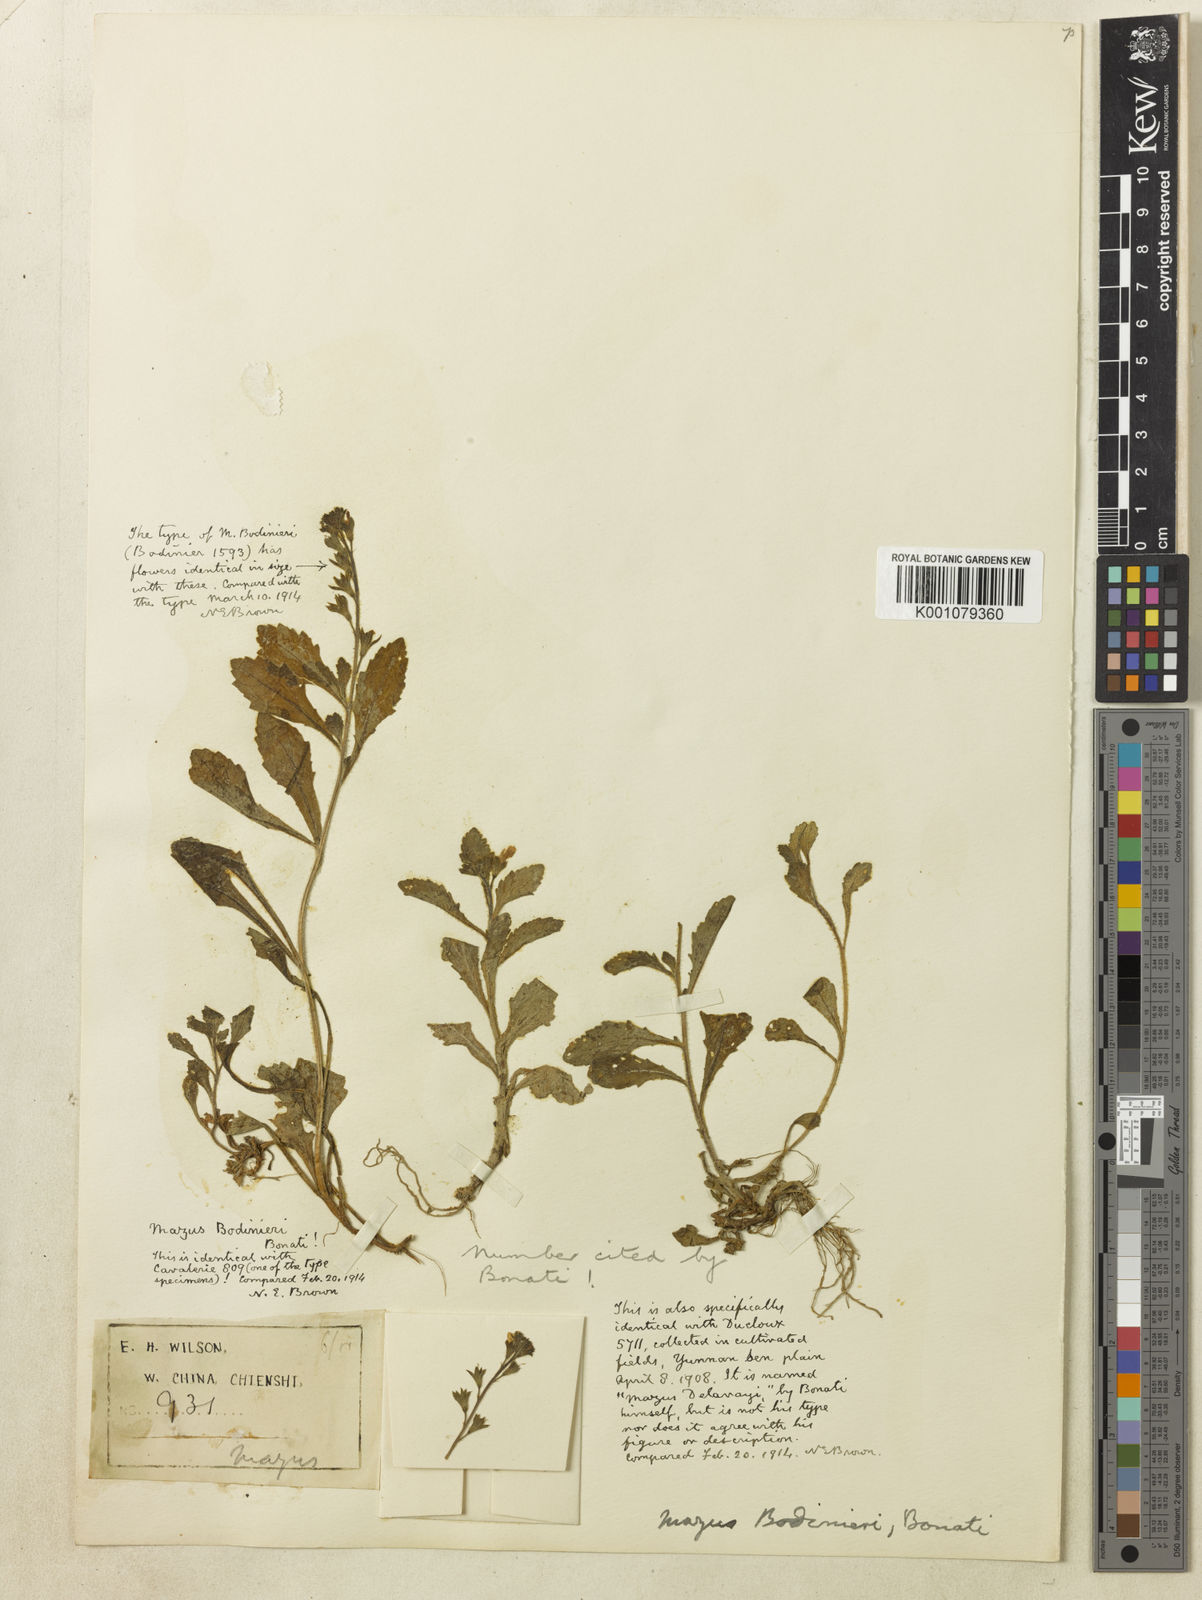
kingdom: Plantae
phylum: Tracheophyta
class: Magnoliopsida
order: Lamiales
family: Mazaceae
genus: Mazus
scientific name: Mazus spicatus
